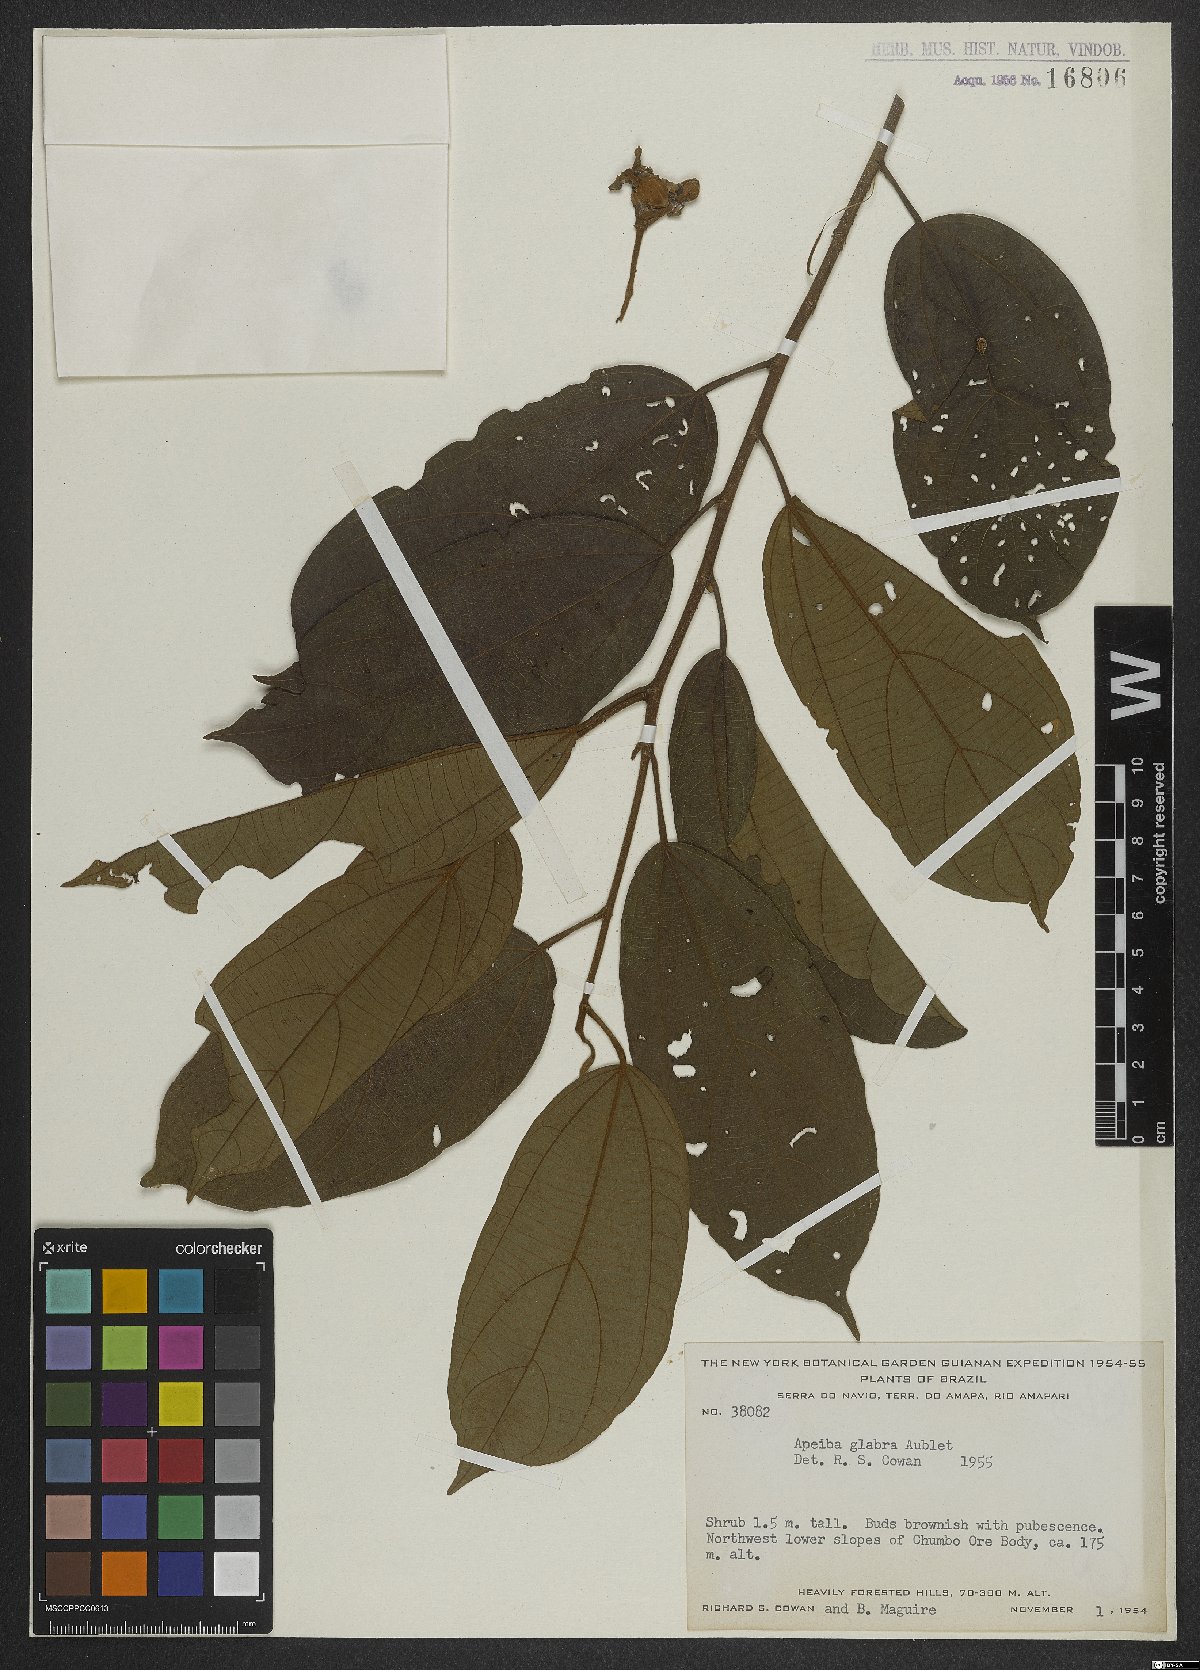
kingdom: Plantae
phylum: Tracheophyta
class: Magnoliopsida
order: Malvales
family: Malvaceae
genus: Apeiba
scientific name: Apeiba glabra
